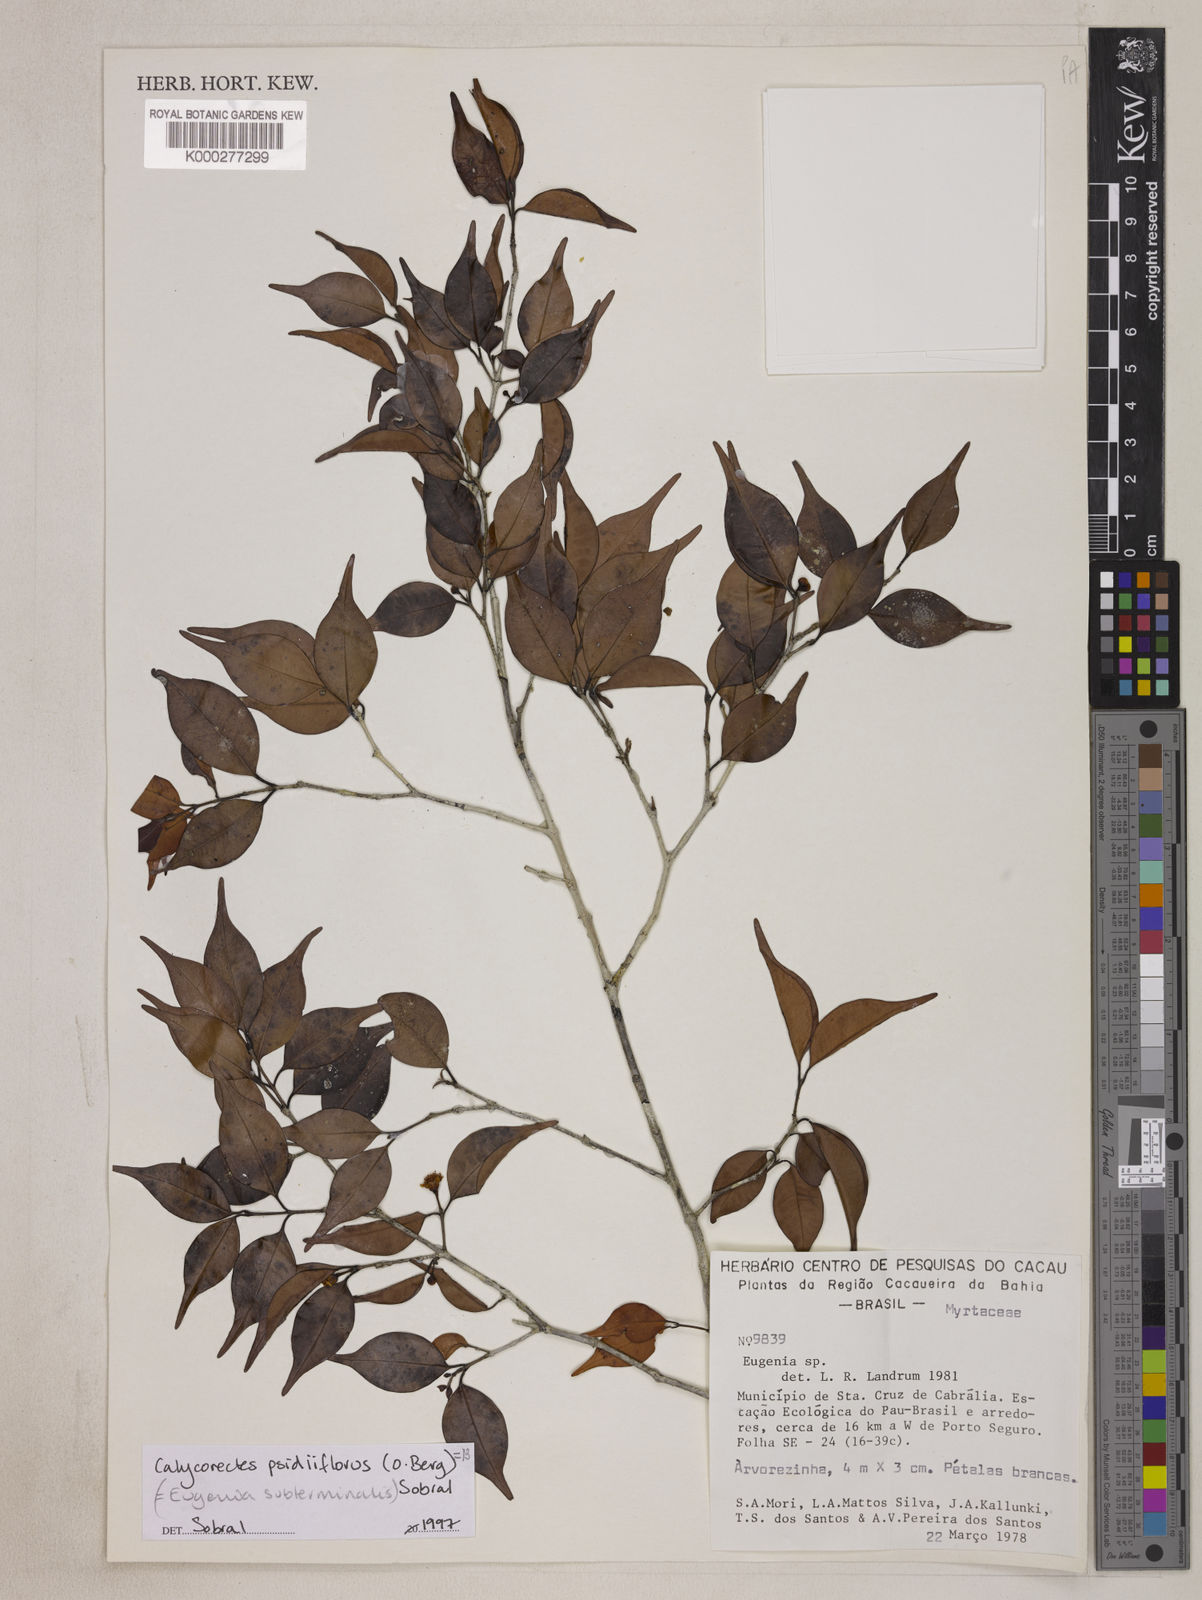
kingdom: Plantae
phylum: Tracheophyta
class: Magnoliopsida
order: Myrtales
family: Myrtaceae
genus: Eugenia
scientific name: Eugenia subterminalis
